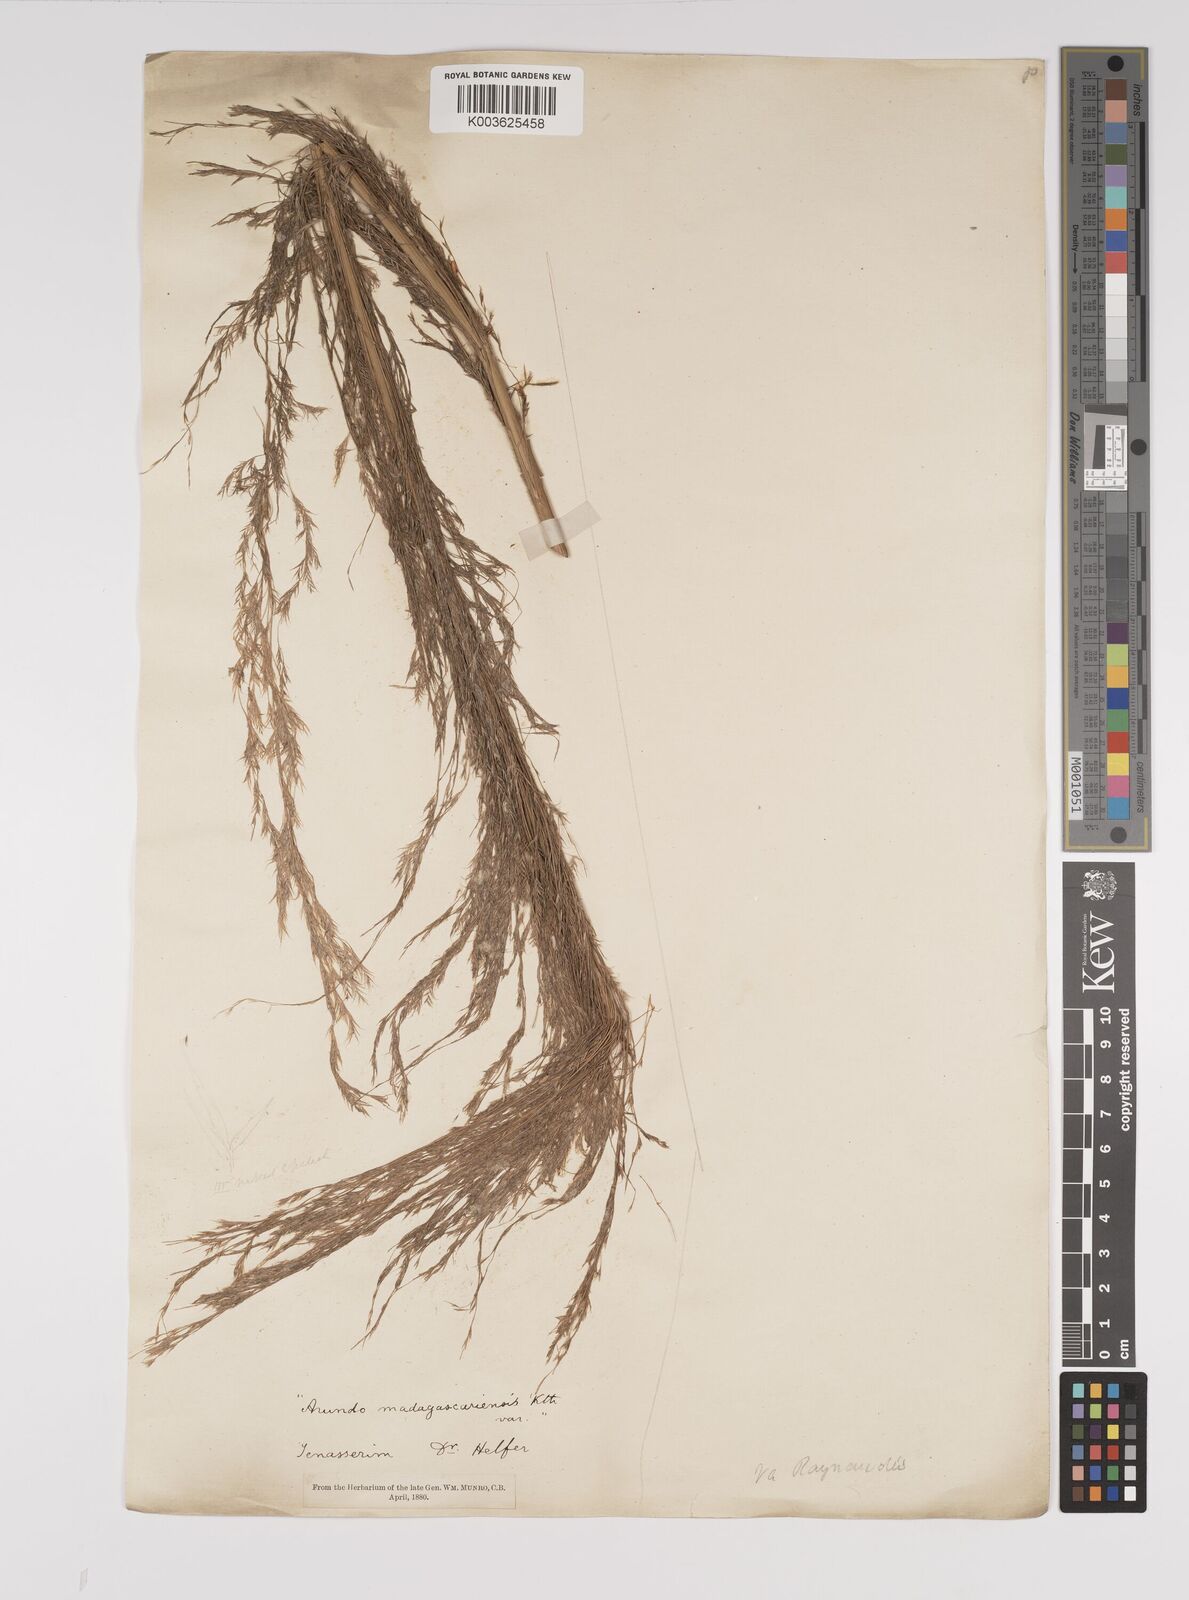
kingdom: Plantae
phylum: Tracheophyta
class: Liliopsida
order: Poales
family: Poaceae
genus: Neyraudia
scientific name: Neyraudia reynaudiana
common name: Silkreed
